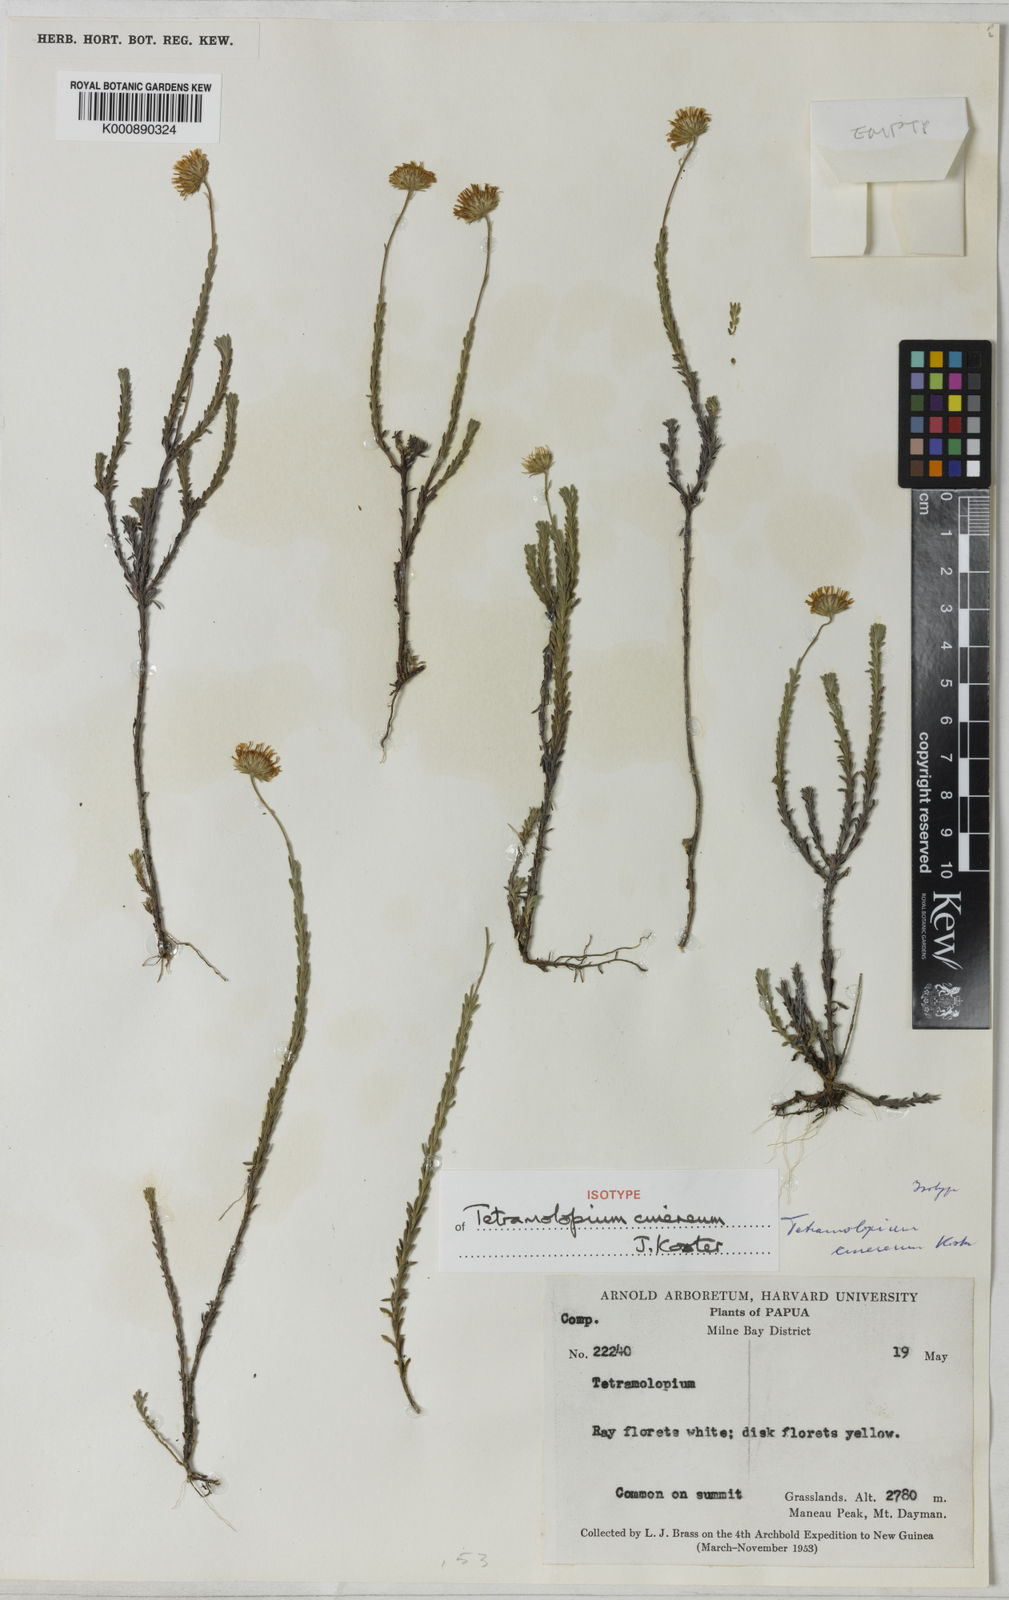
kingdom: Plantae
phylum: Tracheophyta
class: Magnoliopsida
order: Asterales
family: Asteraceae
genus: Tetramolopium
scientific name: Tetramolopium cinereum
